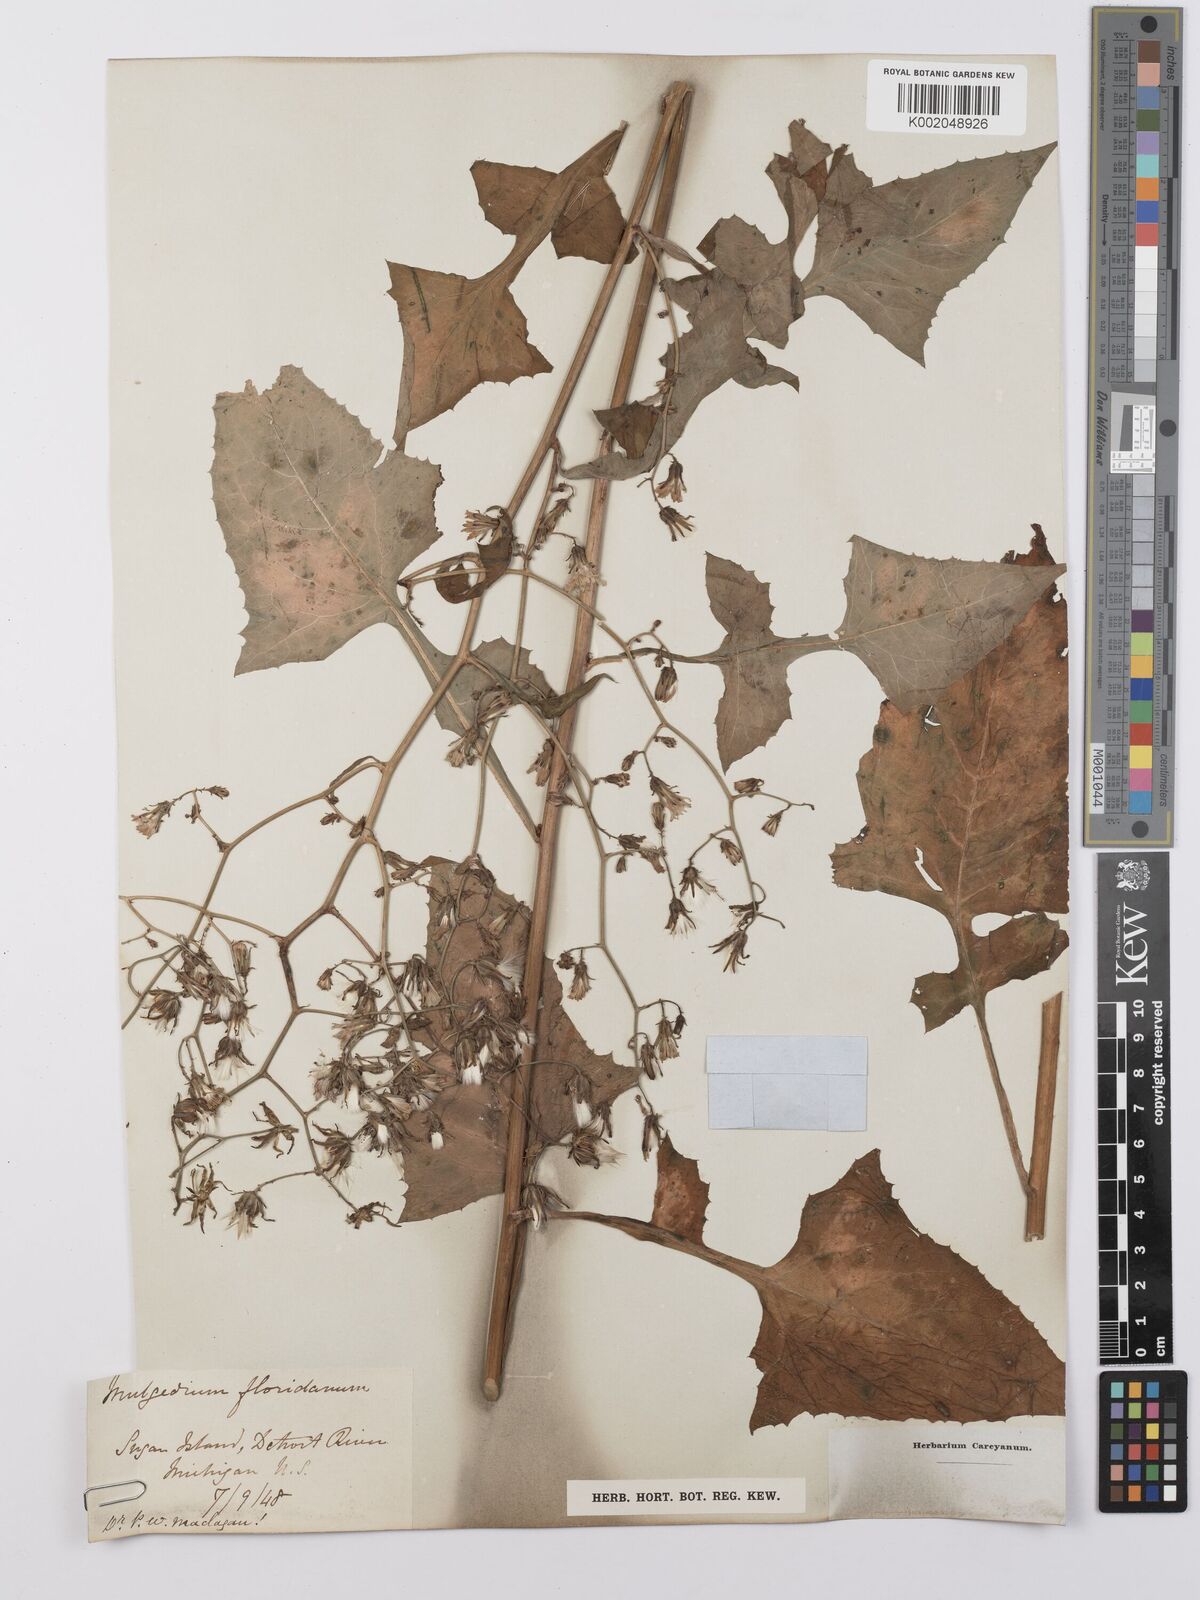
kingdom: Plantae
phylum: Tracheophyta
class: Magnoliopsida
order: Asterales
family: Asteraceae
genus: Lactuca
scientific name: Lactuca floridana
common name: Woodland lettuce
